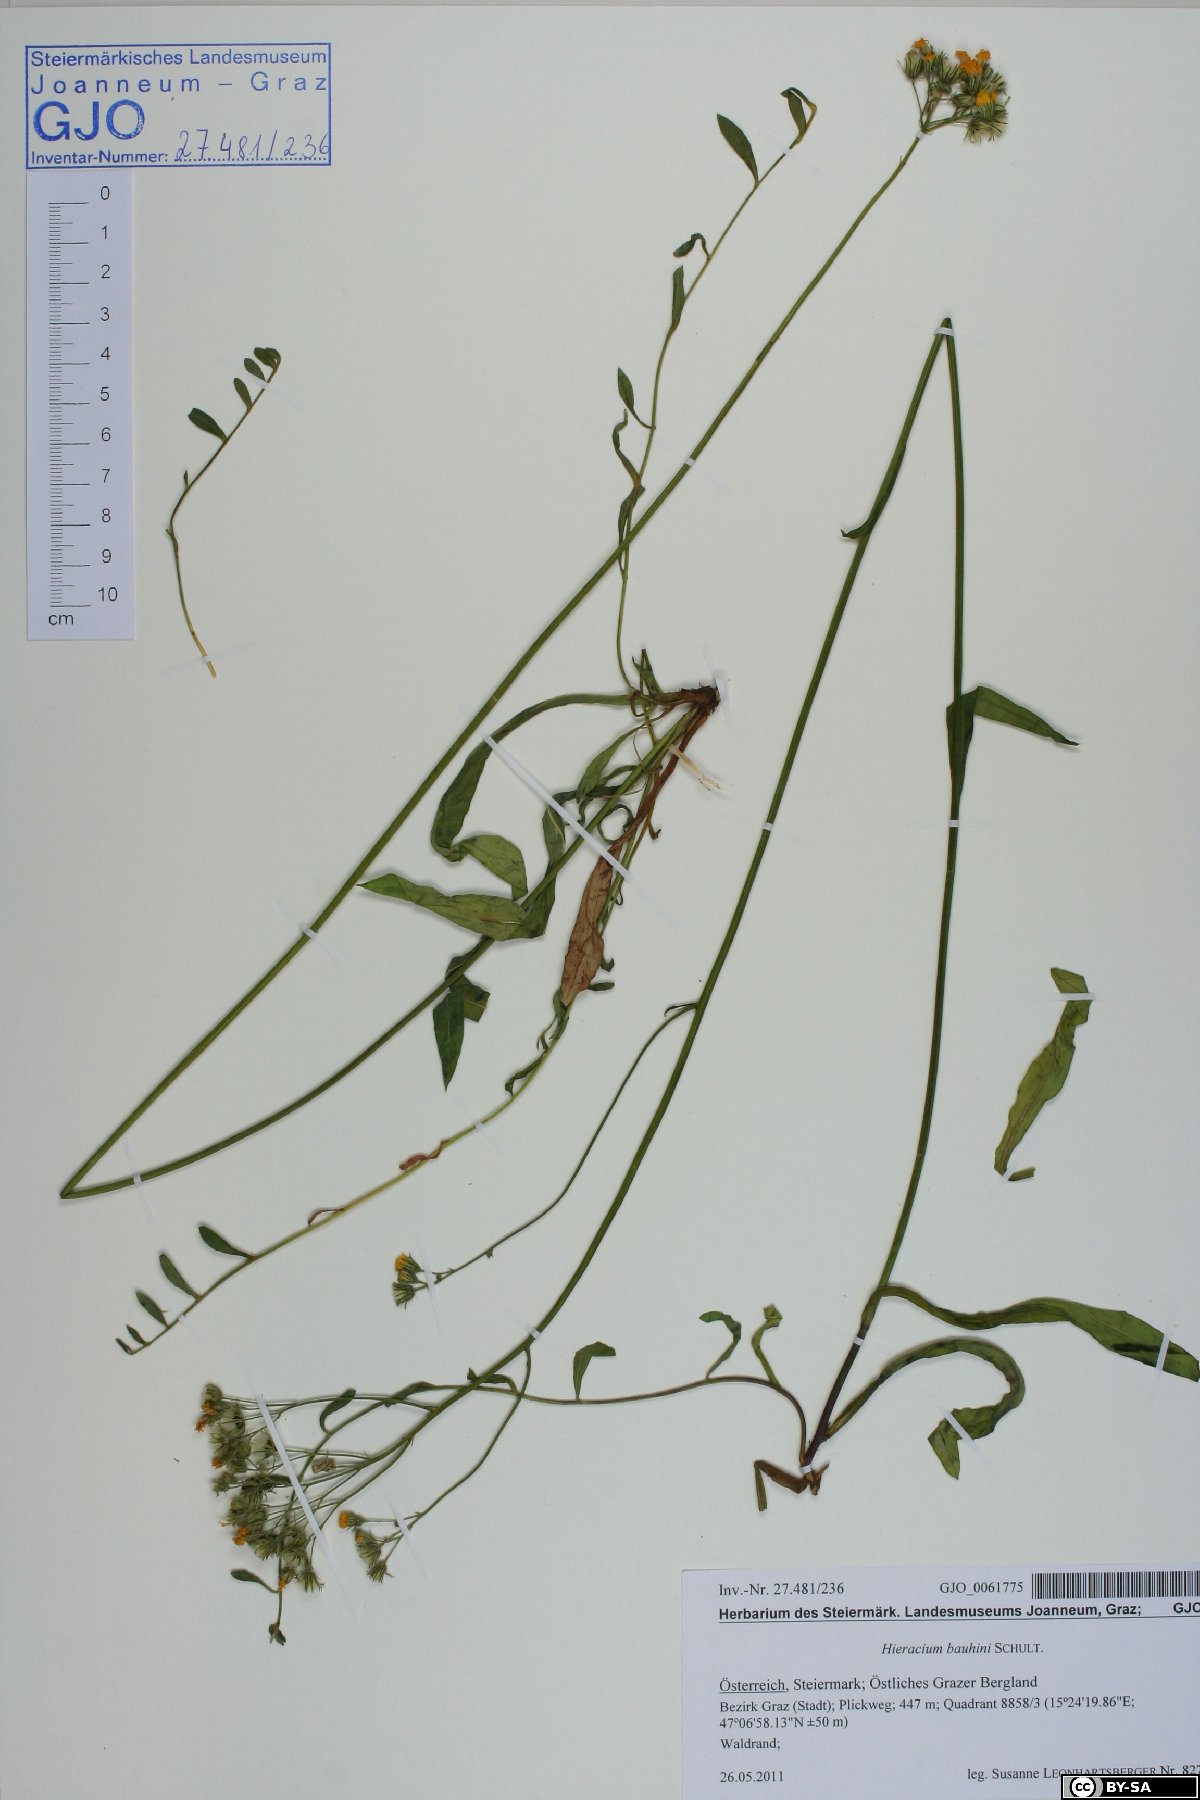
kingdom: Plantae
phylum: Tracheophyta
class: Magnoliopsida
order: Asterales
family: Asteraceae
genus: Pilosella
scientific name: Pilosella bauhini
